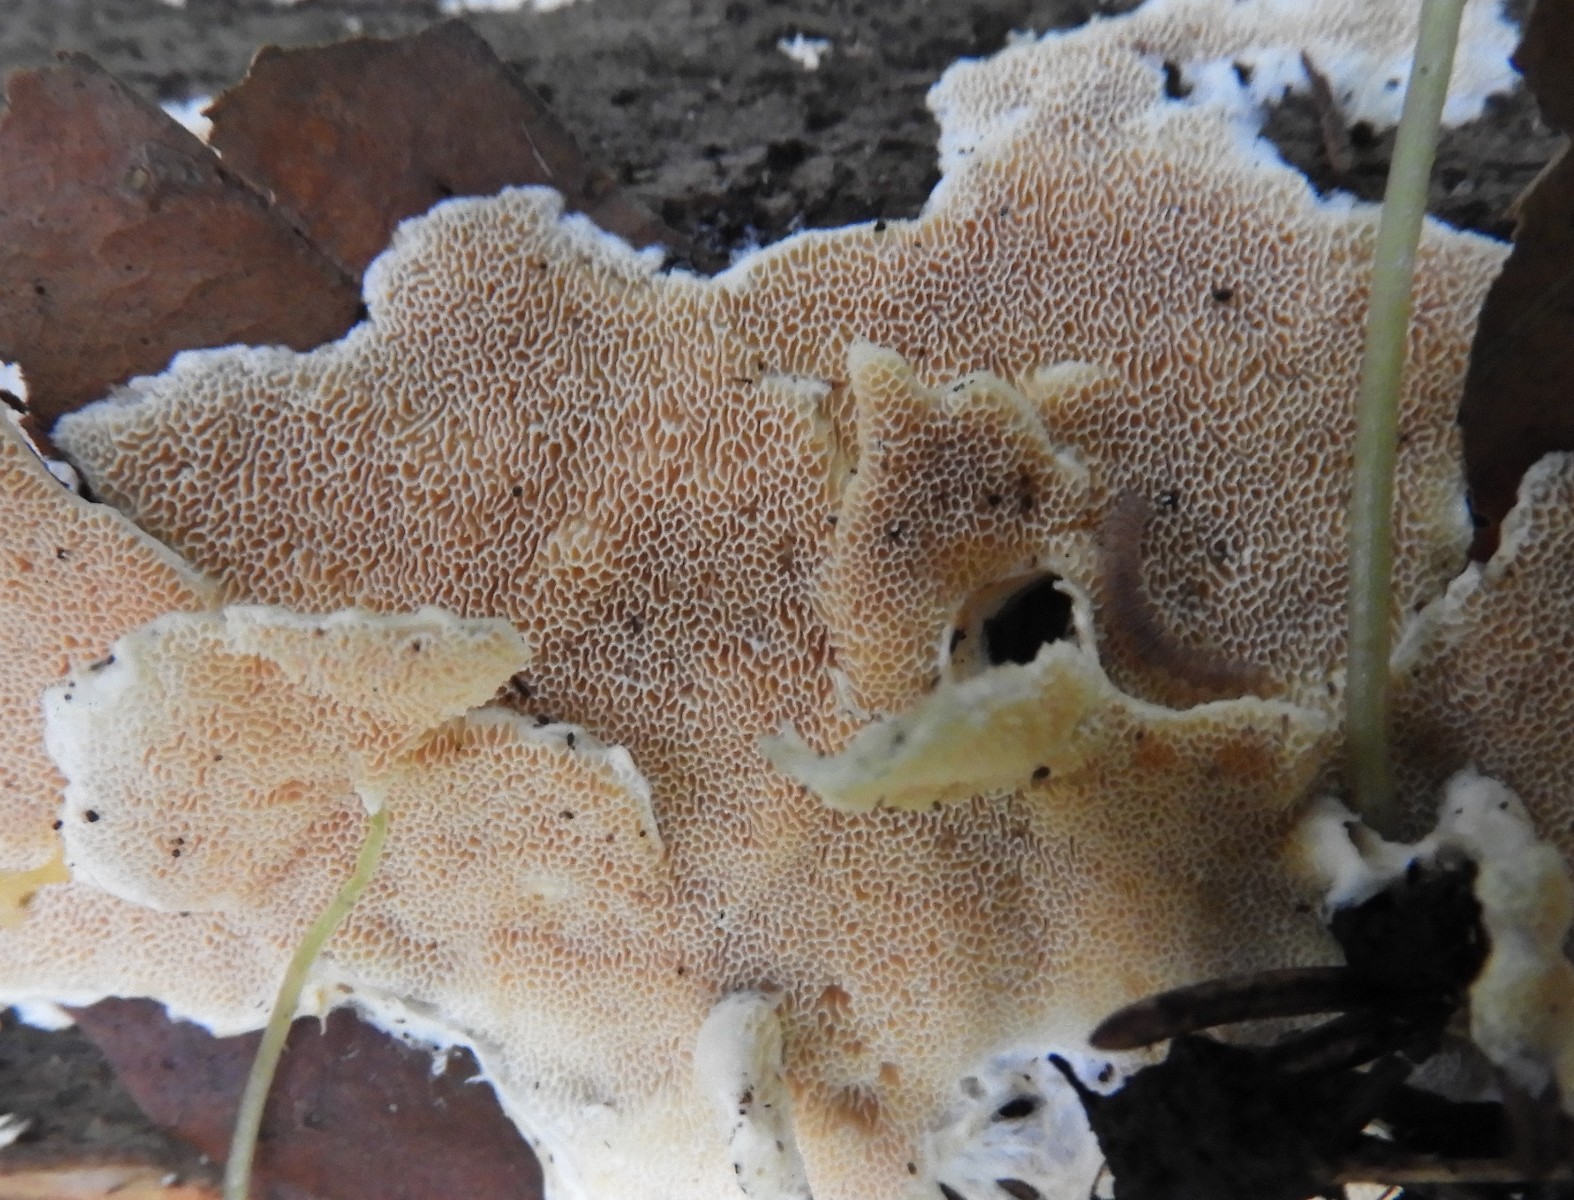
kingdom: Fungi
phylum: Basidiomycota
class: Agaricomycetes
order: Polyporales
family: Steccherinaceae
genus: Junghuhnia
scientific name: Junghuhnia
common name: skønporesvamp
